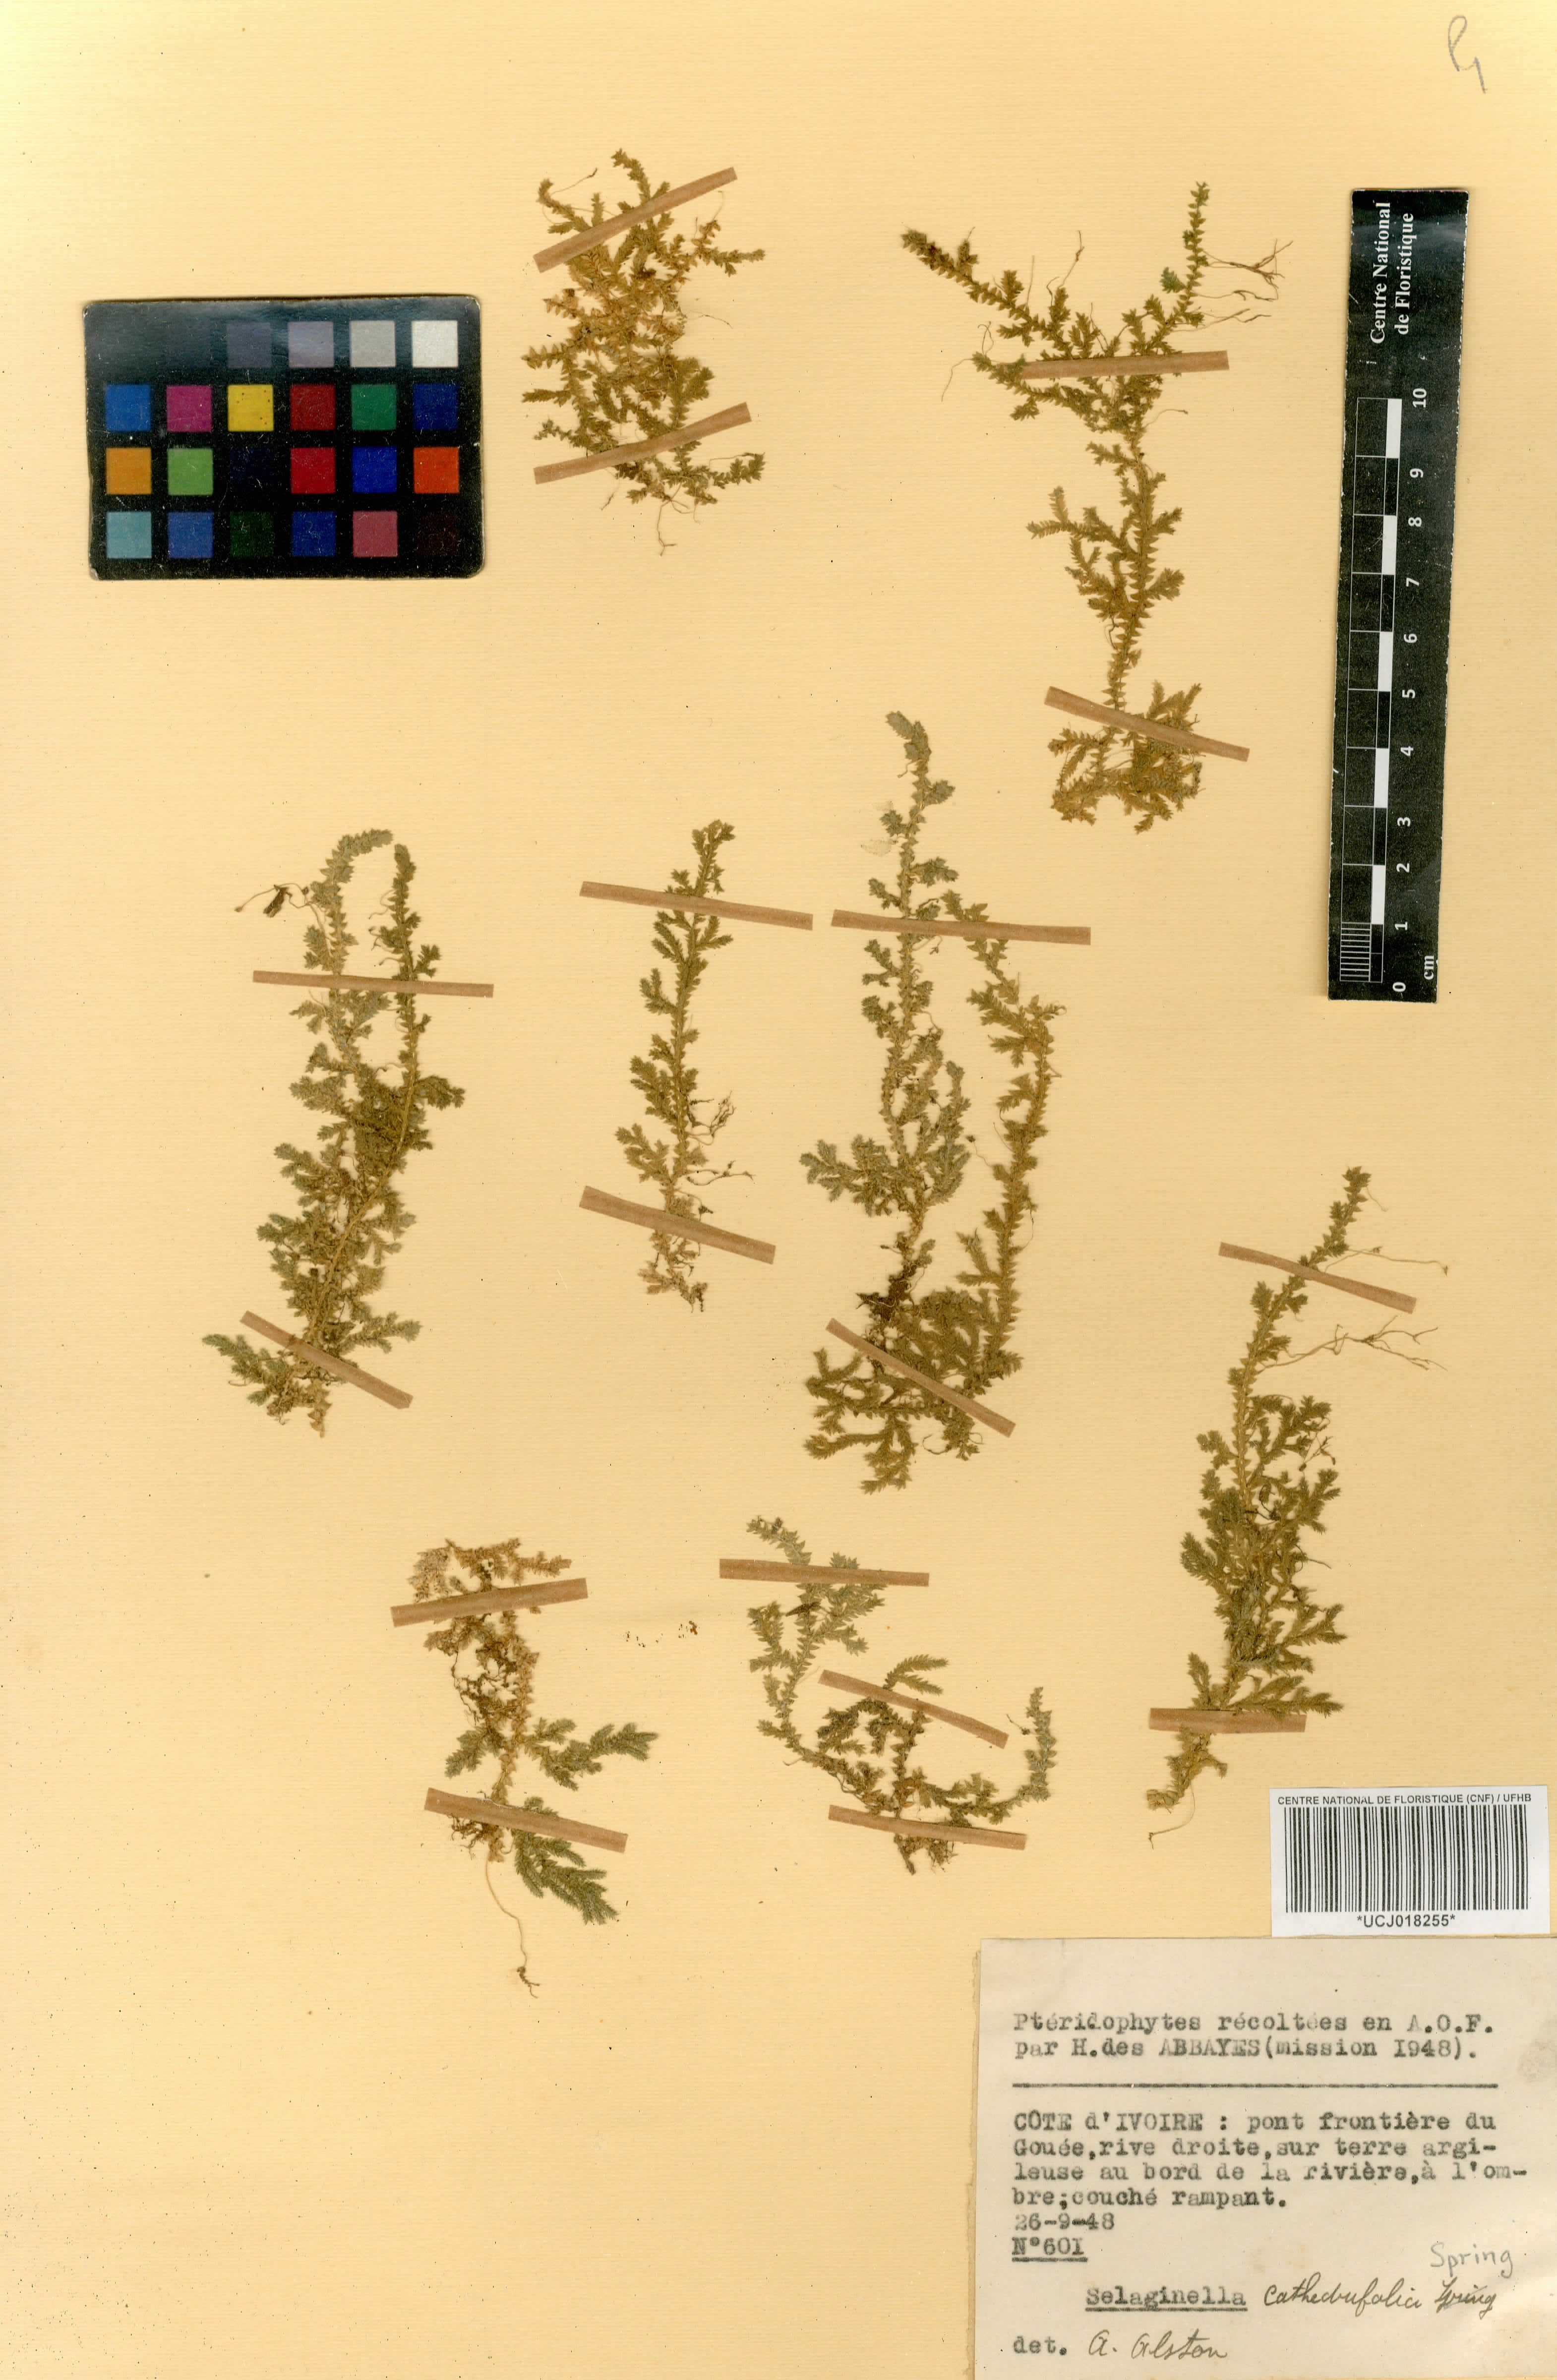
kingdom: Plantae
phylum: Tracheophyta
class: Lycopodiopsida
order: Selaginellales
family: Selaginellaceae
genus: Selaginella
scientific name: Selaginella cathedrifolia
